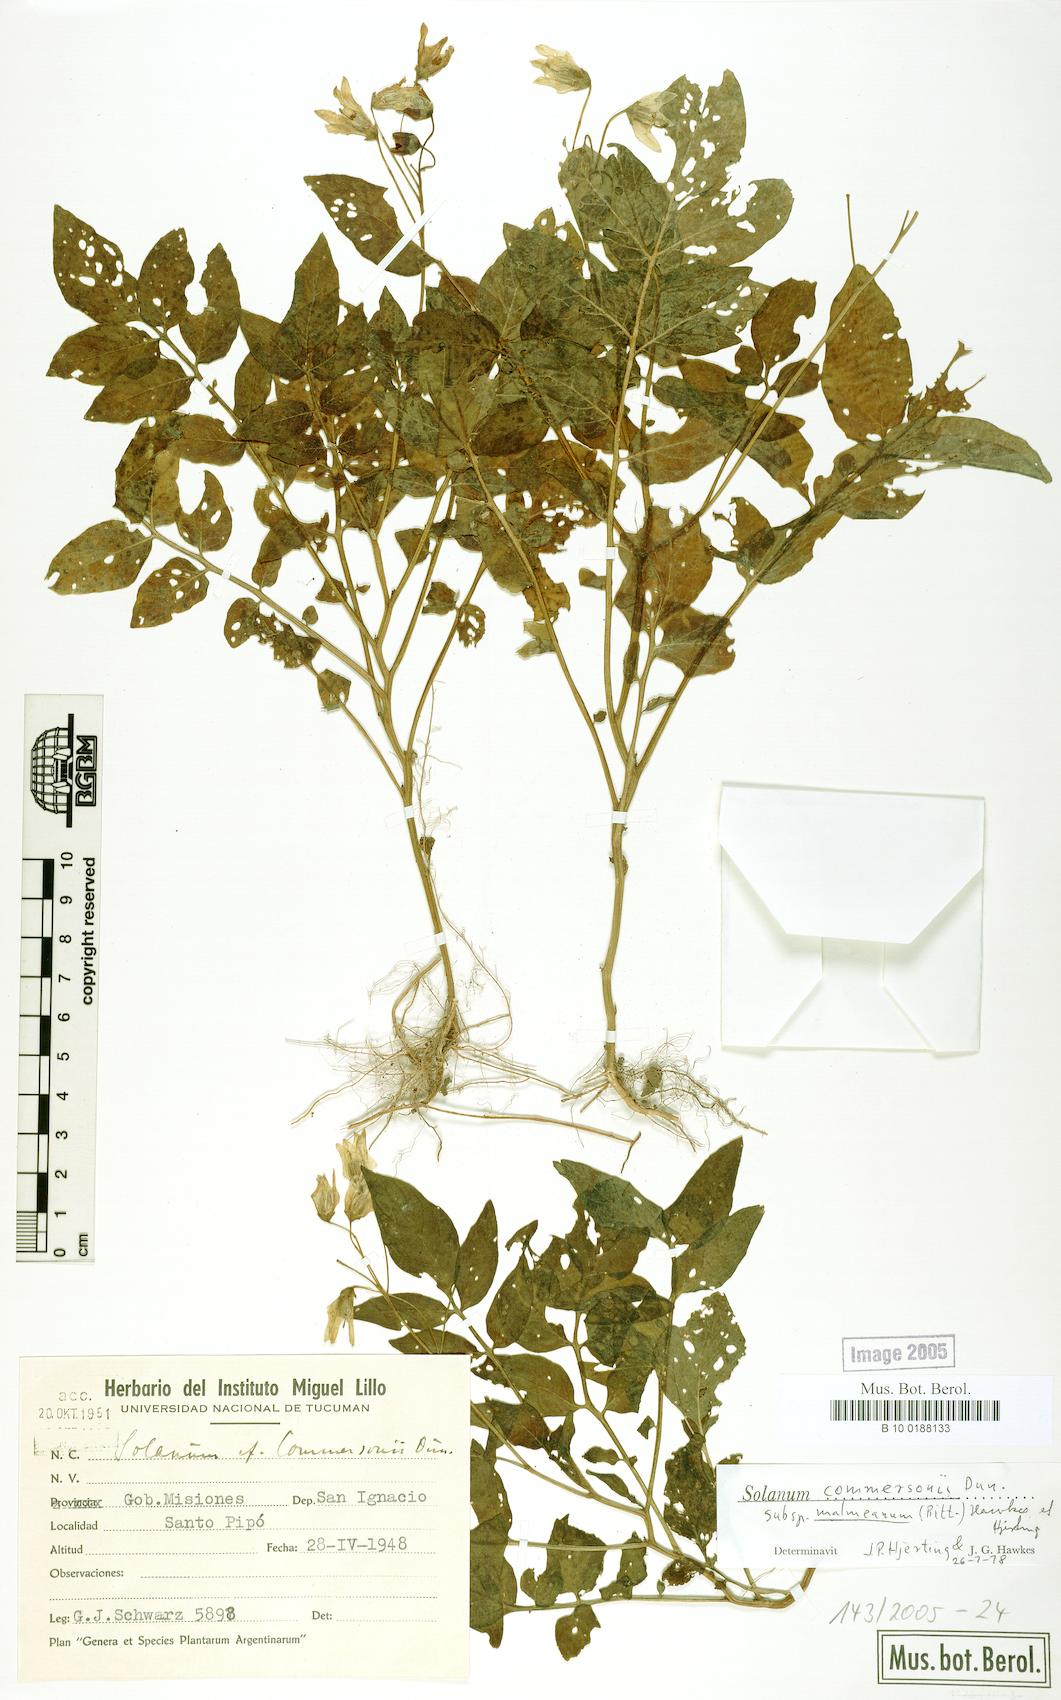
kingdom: Plantae
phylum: Tracheophyta
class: Magnoliopsida
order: Solanales
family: Solanaceae
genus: Solanum
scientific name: Solanum malmeanum
